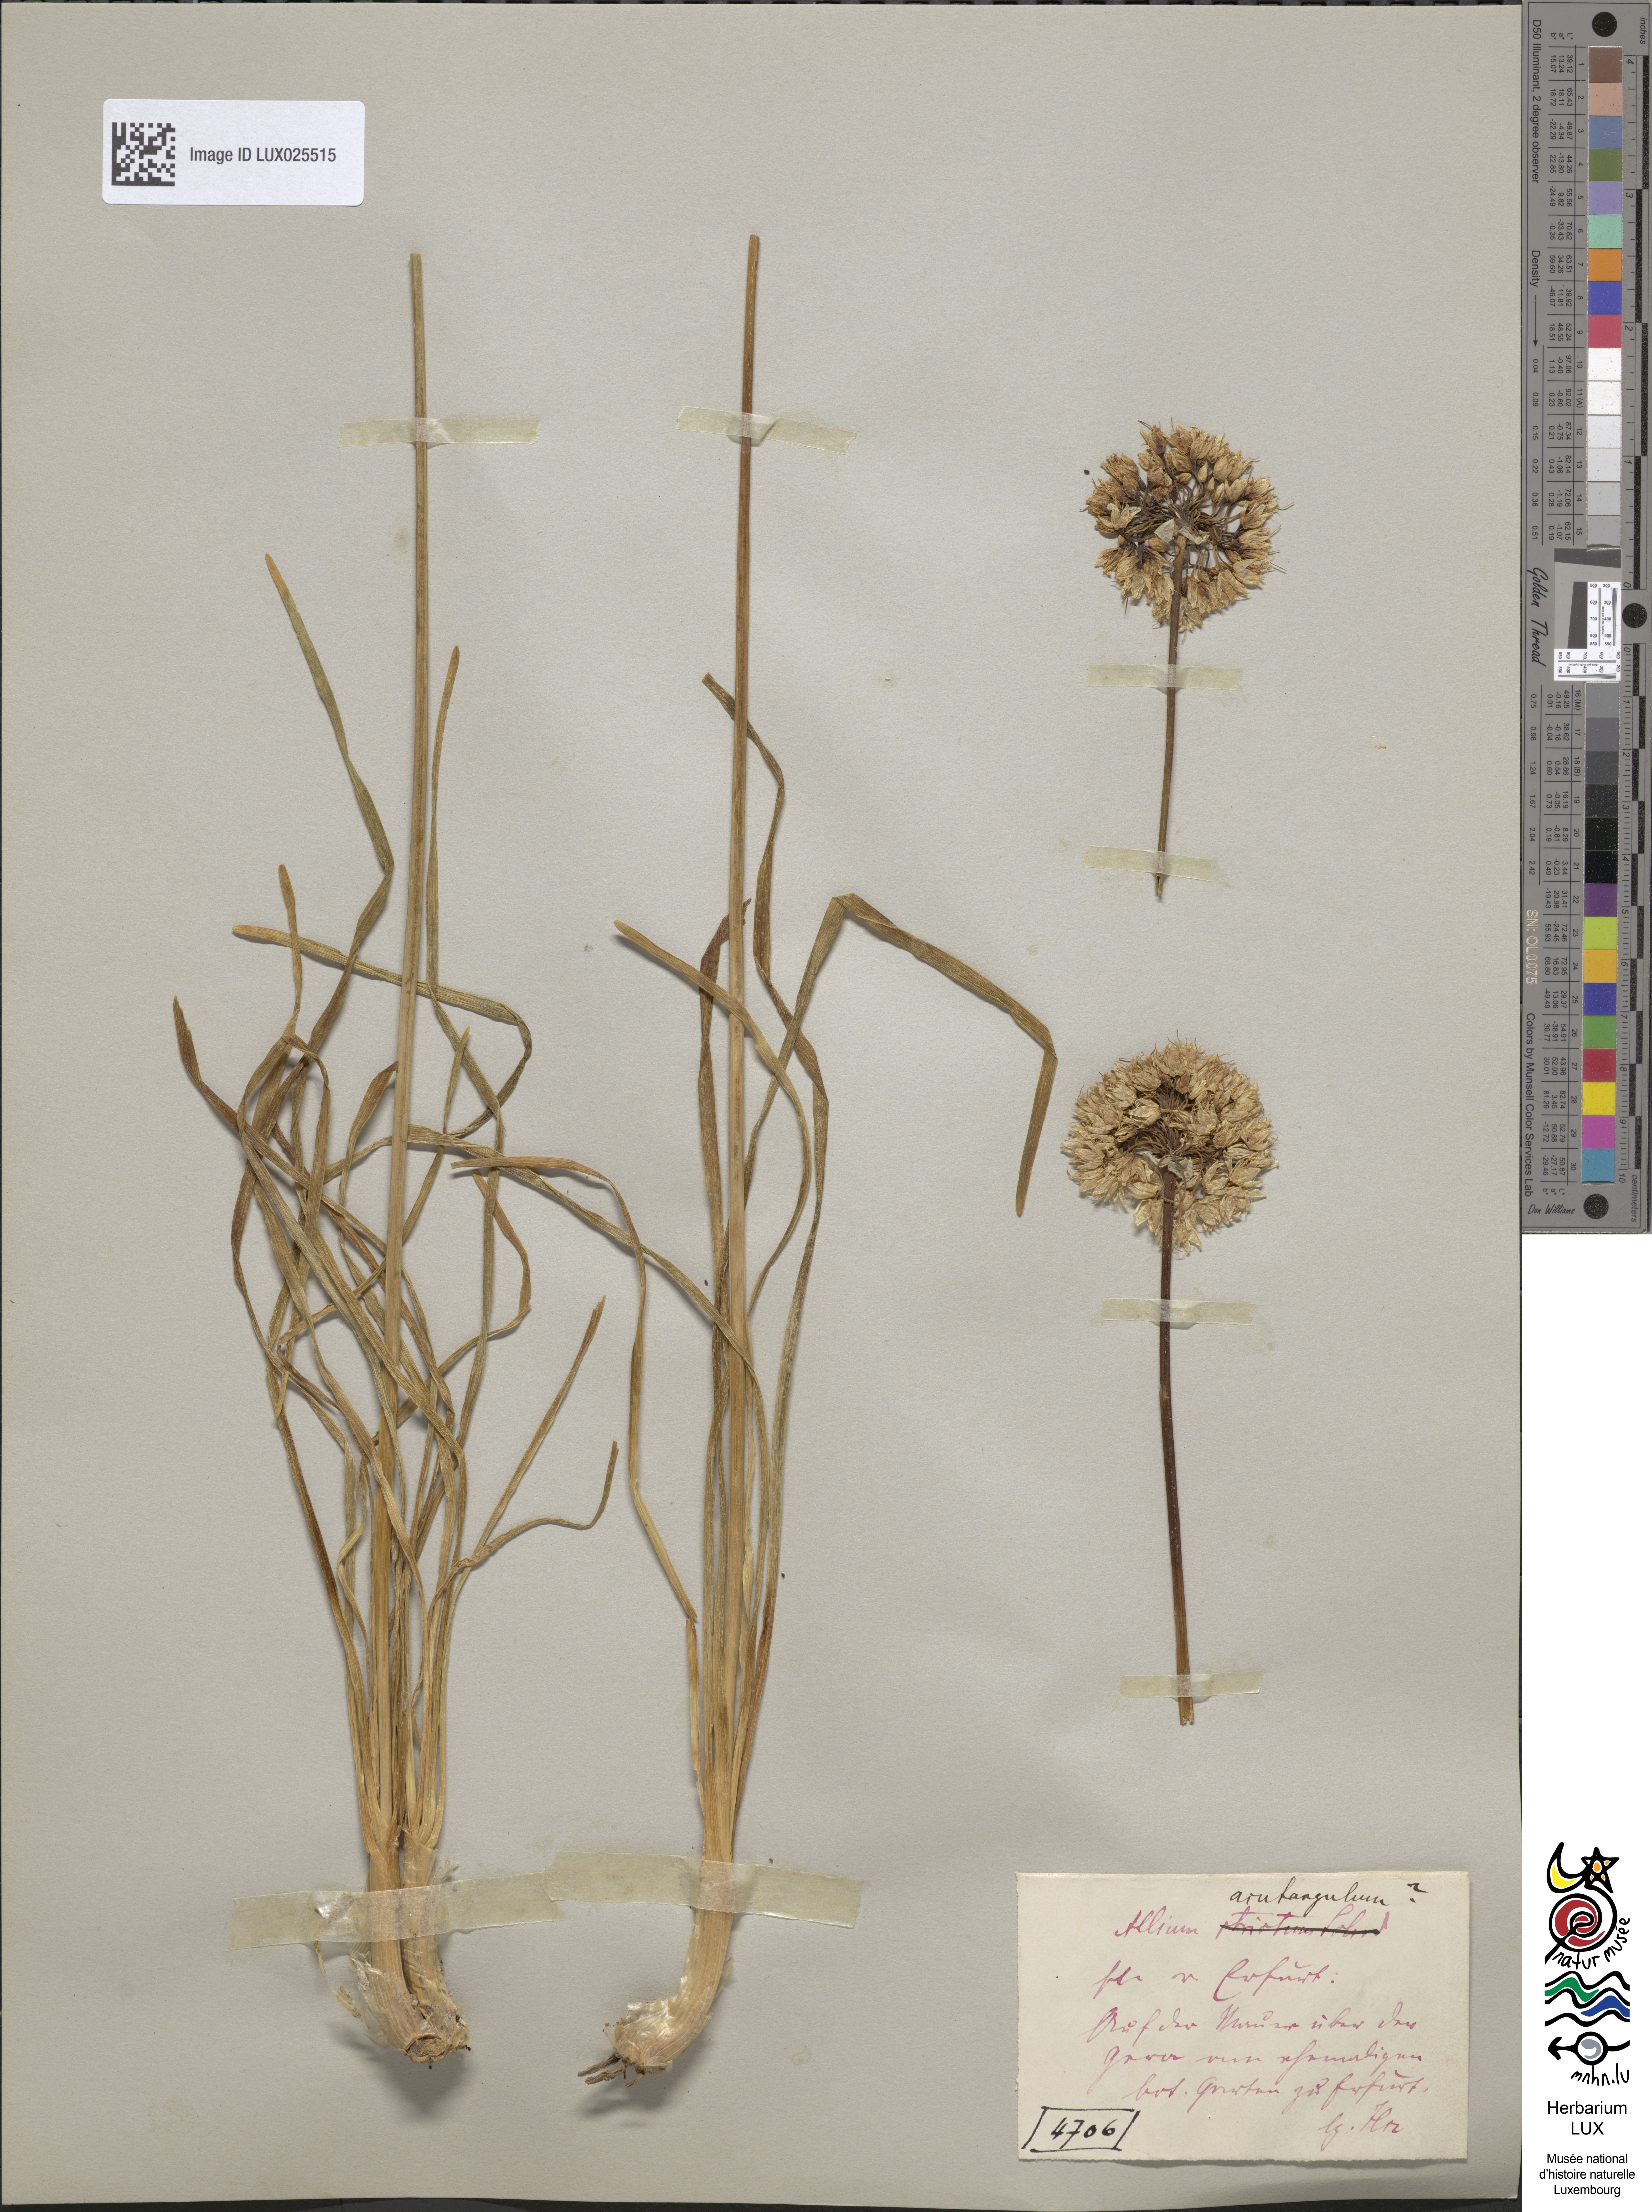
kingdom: Plantae
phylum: Tracheophyta
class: Liliopsida
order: Asparagales
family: Amaryllidaceae
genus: Allium
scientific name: Allium angulosum
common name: Mouse garlic
